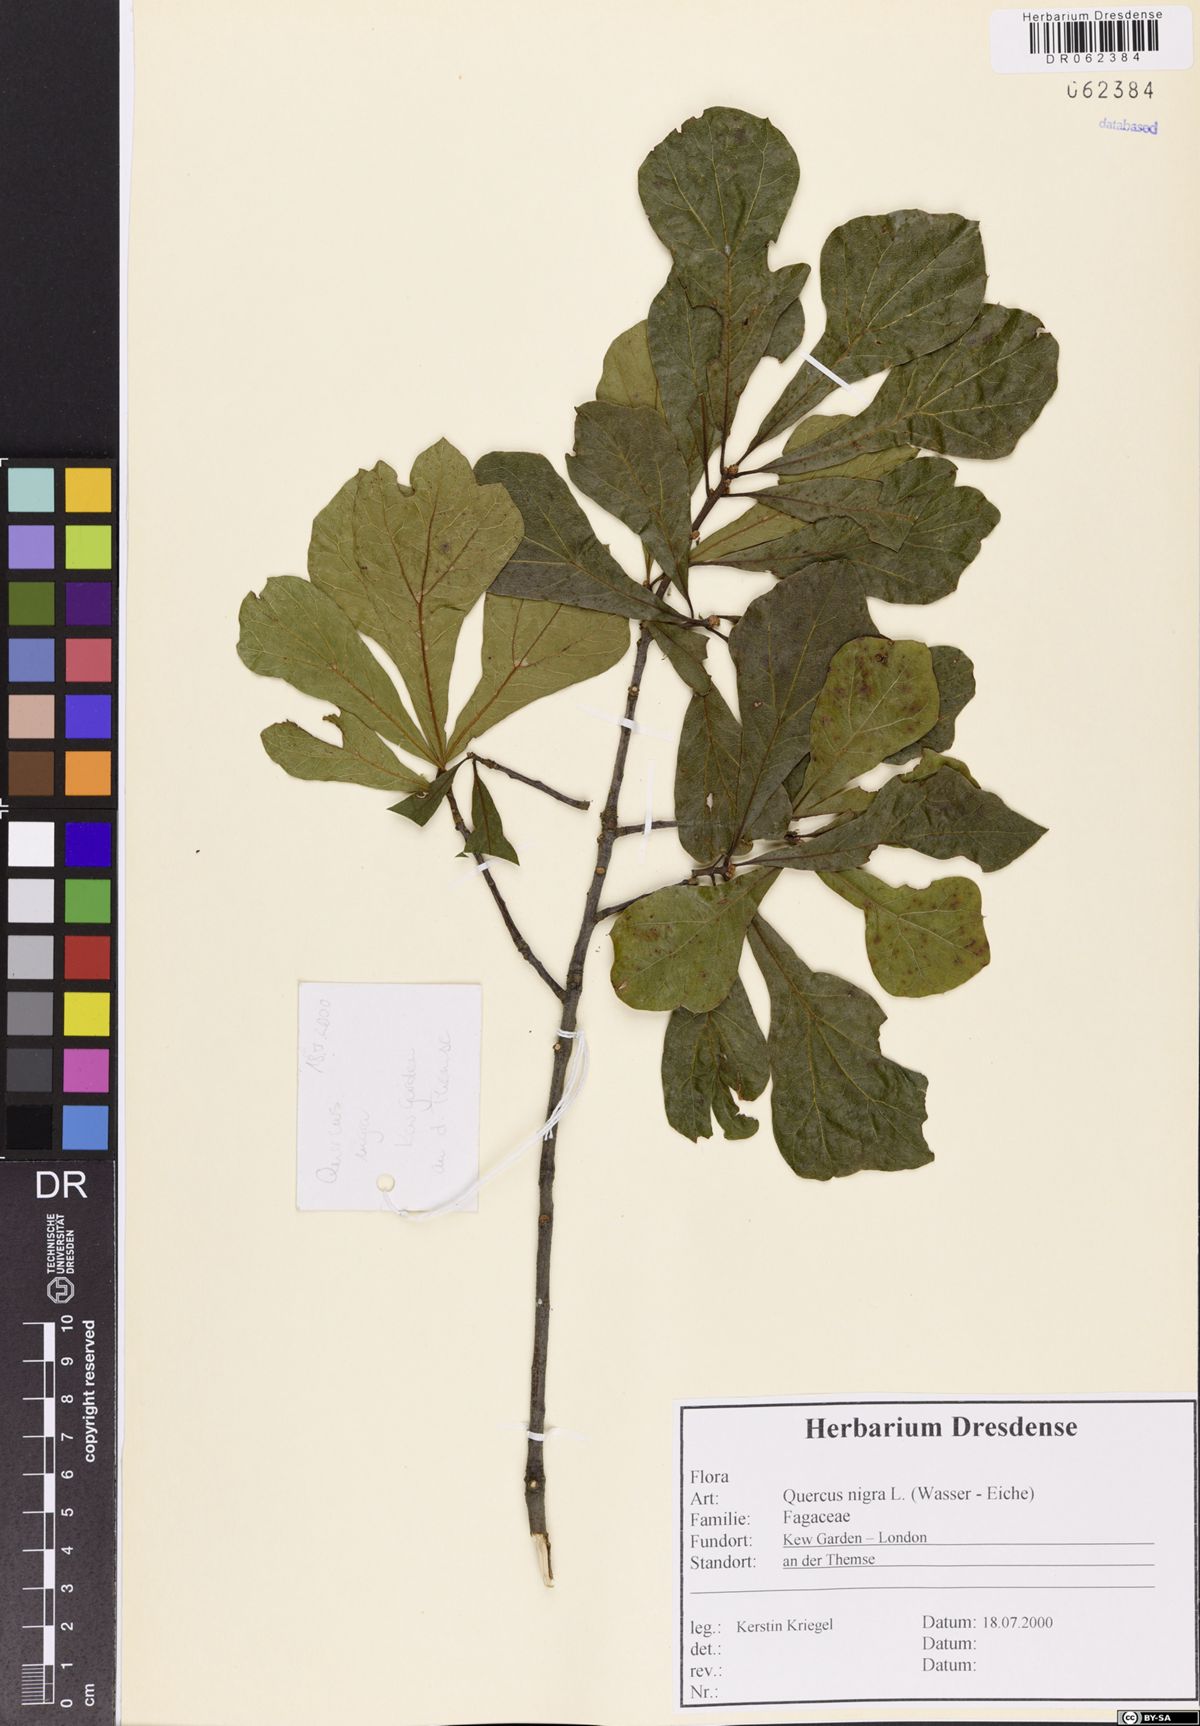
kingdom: Plantae
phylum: Tracheophyta
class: Magnoliopsida
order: Fagales
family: Fagaceae
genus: Quercus
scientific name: Quercus nigra
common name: Water oak
